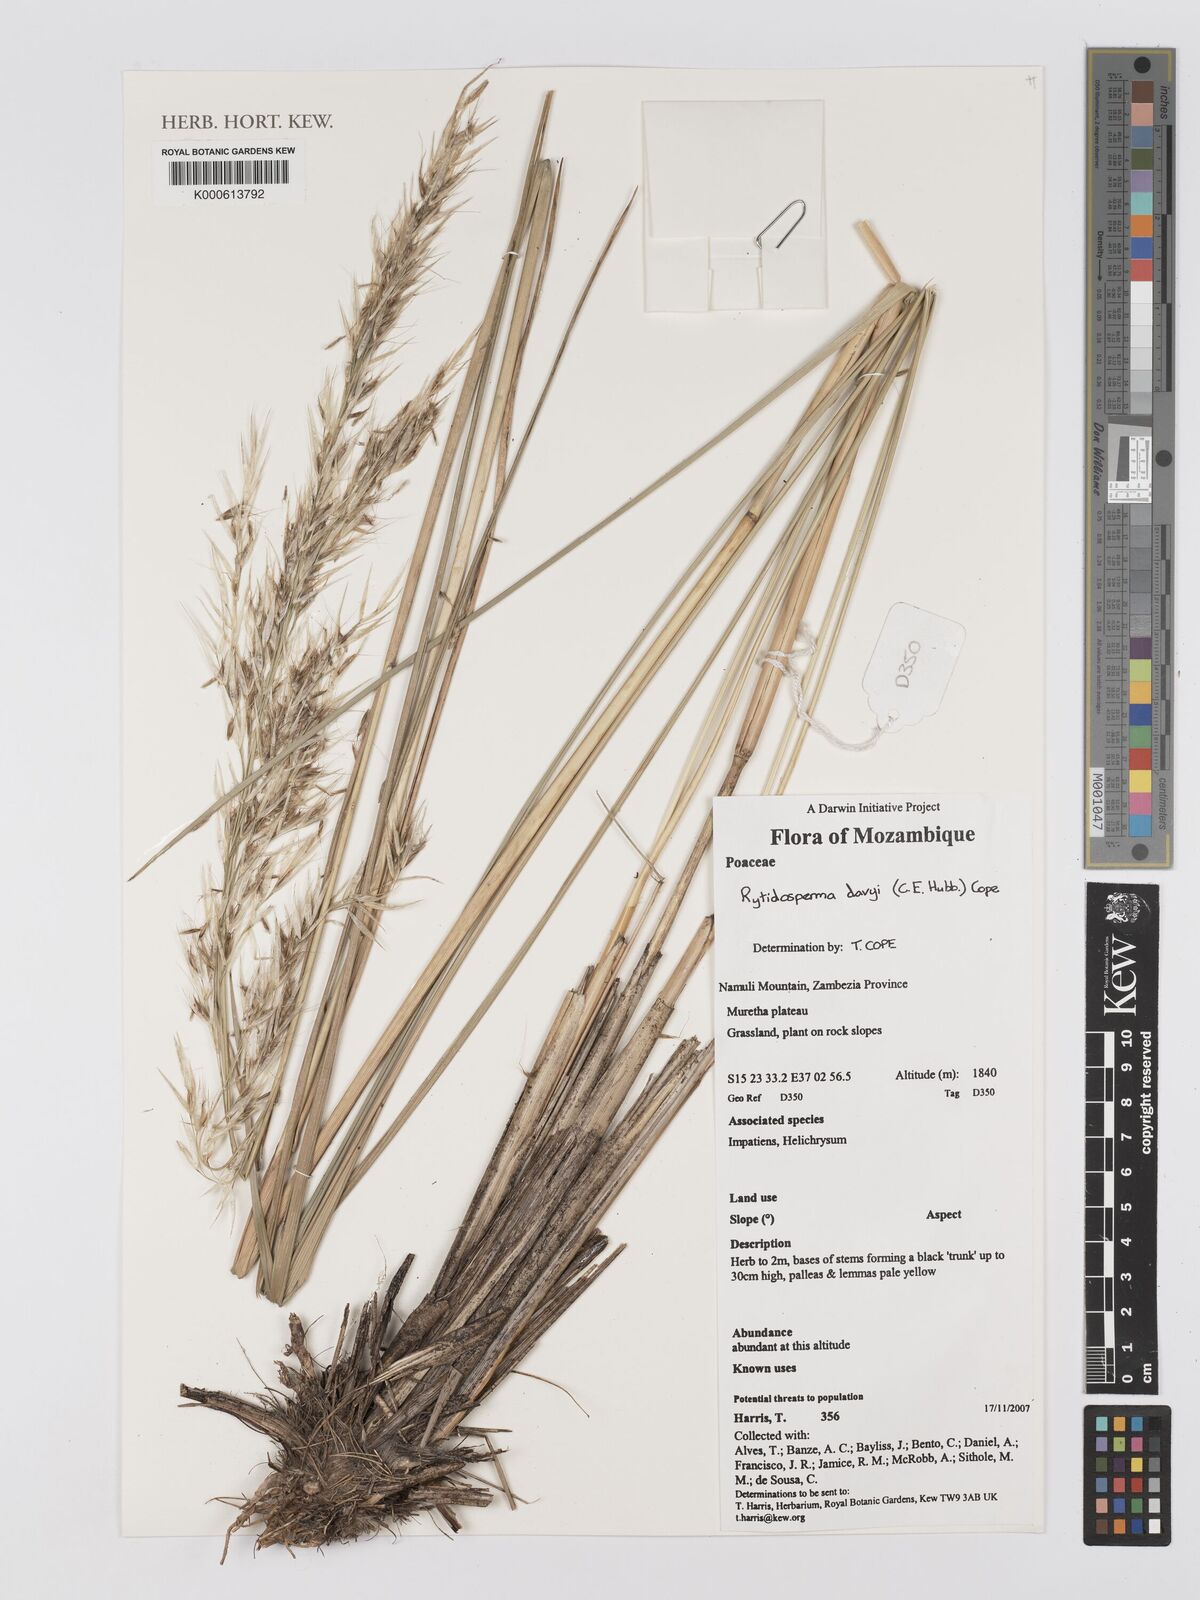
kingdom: Plantae
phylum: Tracheophyta
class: Liliopsida
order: Poales
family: Poaceae
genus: Merxmuellera
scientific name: Merxmuellera davyi
